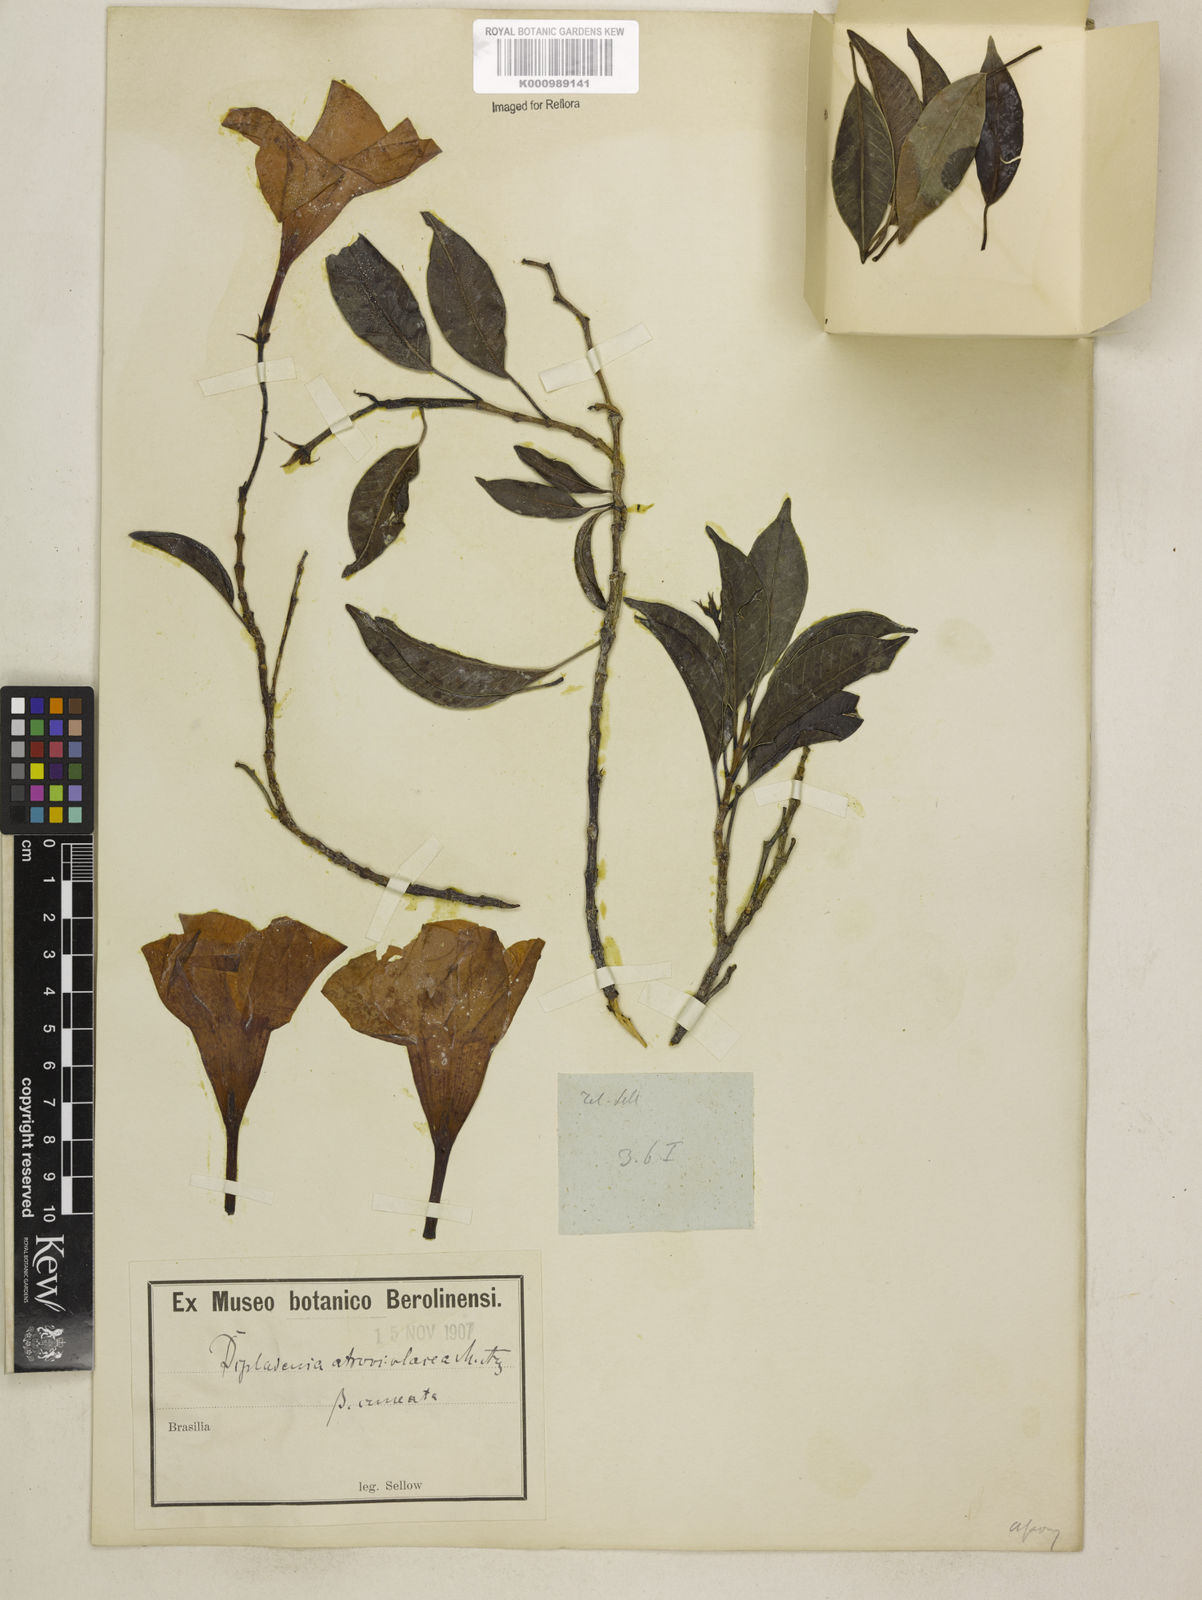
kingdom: Plantae
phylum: Tracheophyta
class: Magnoliopsida
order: Gentianales
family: Apocynaceae
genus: Mandevilla
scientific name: Mandevilla atroviolacea
